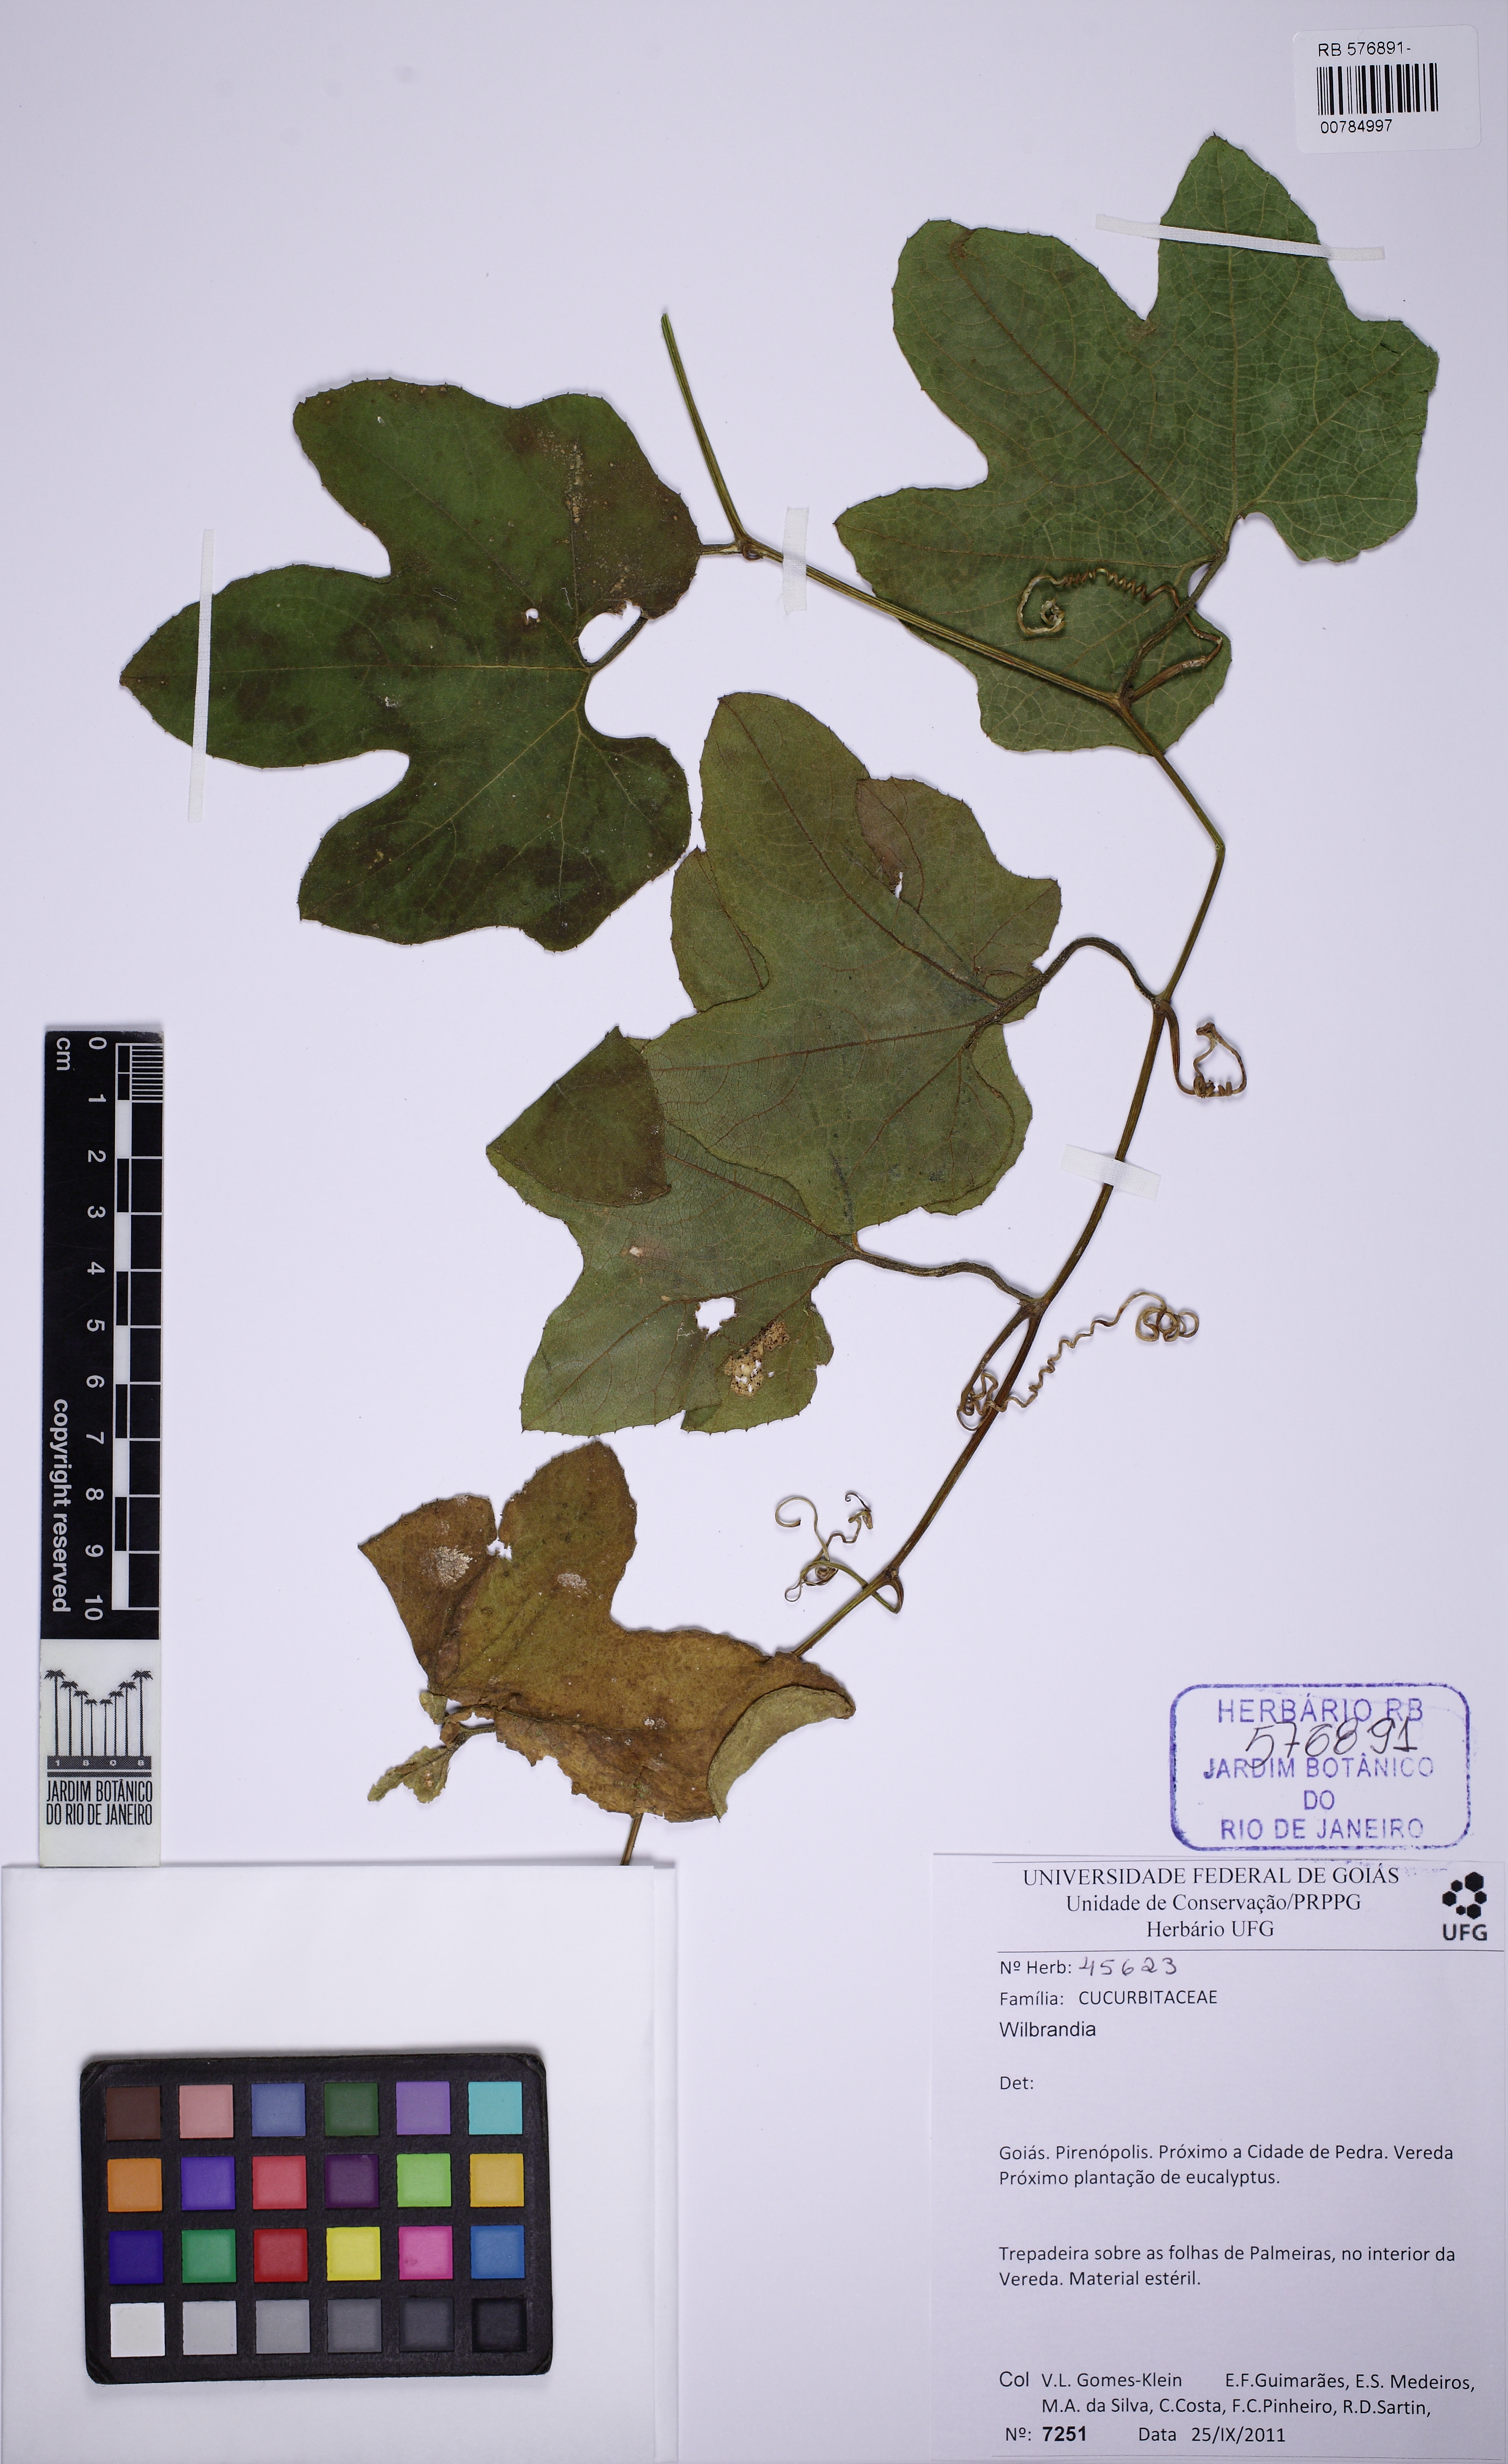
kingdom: Plantae
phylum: Tracheophyta
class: Magnoliopsida
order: Cucurbitales
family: Cucurbitaceae
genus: Wilbrandia
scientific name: Wilbrandia
